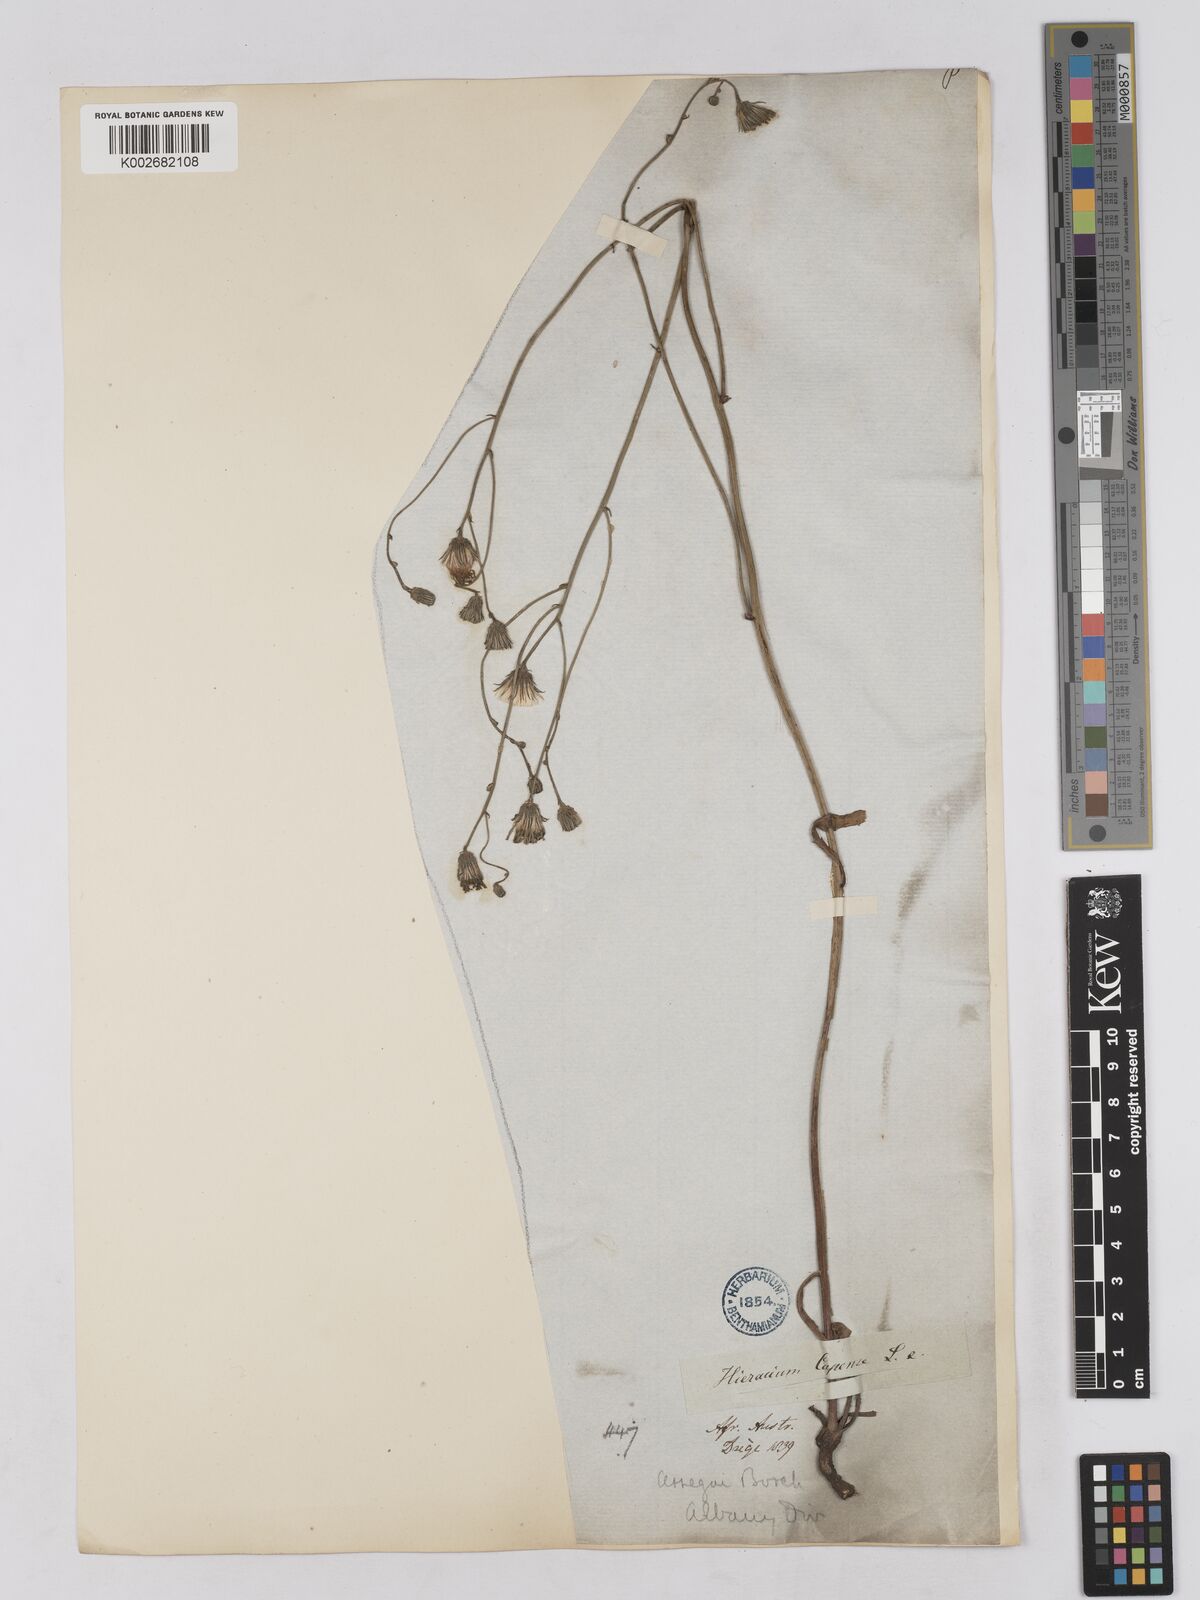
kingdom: Plantae
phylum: Tracheophyta
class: Magnoliopsida
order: Asterales
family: Asteraceae
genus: Tolpis
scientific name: Tolpis capensis
